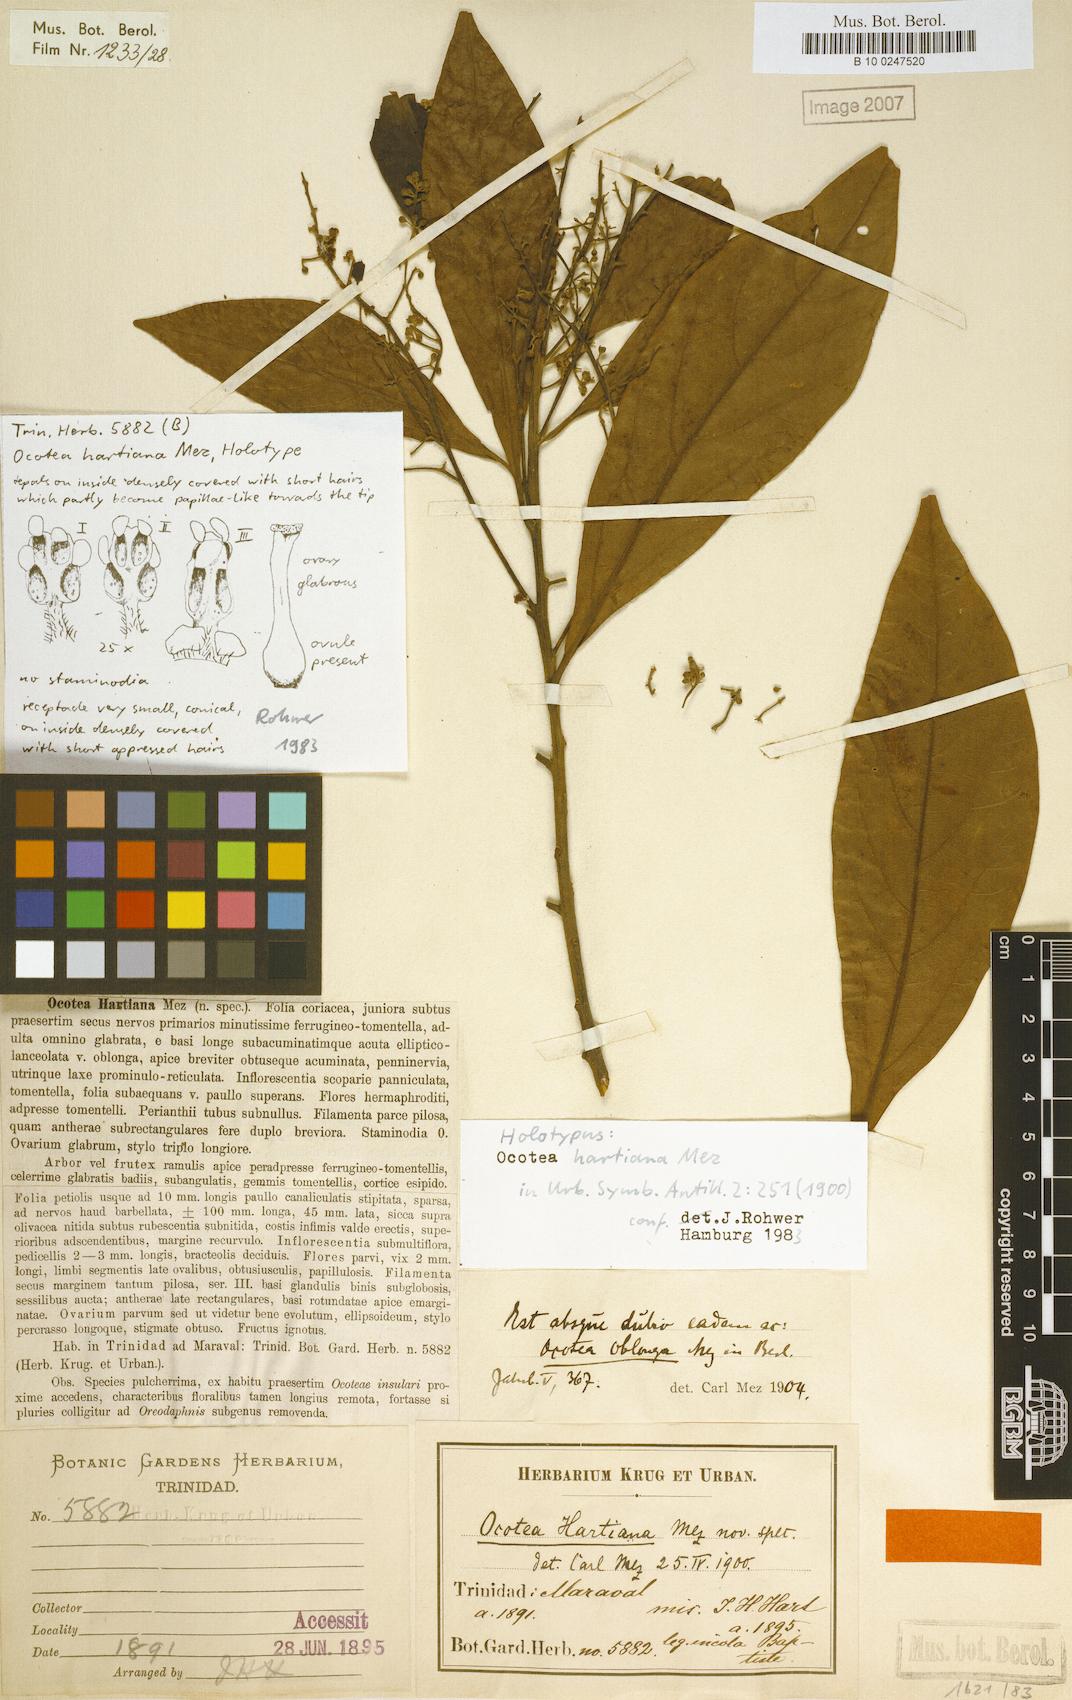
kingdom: Plantae
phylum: Tracheophyta
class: Magnoliopsida
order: Laurales
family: Lauraceae
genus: Ocotea
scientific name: Ocotea oblonga
